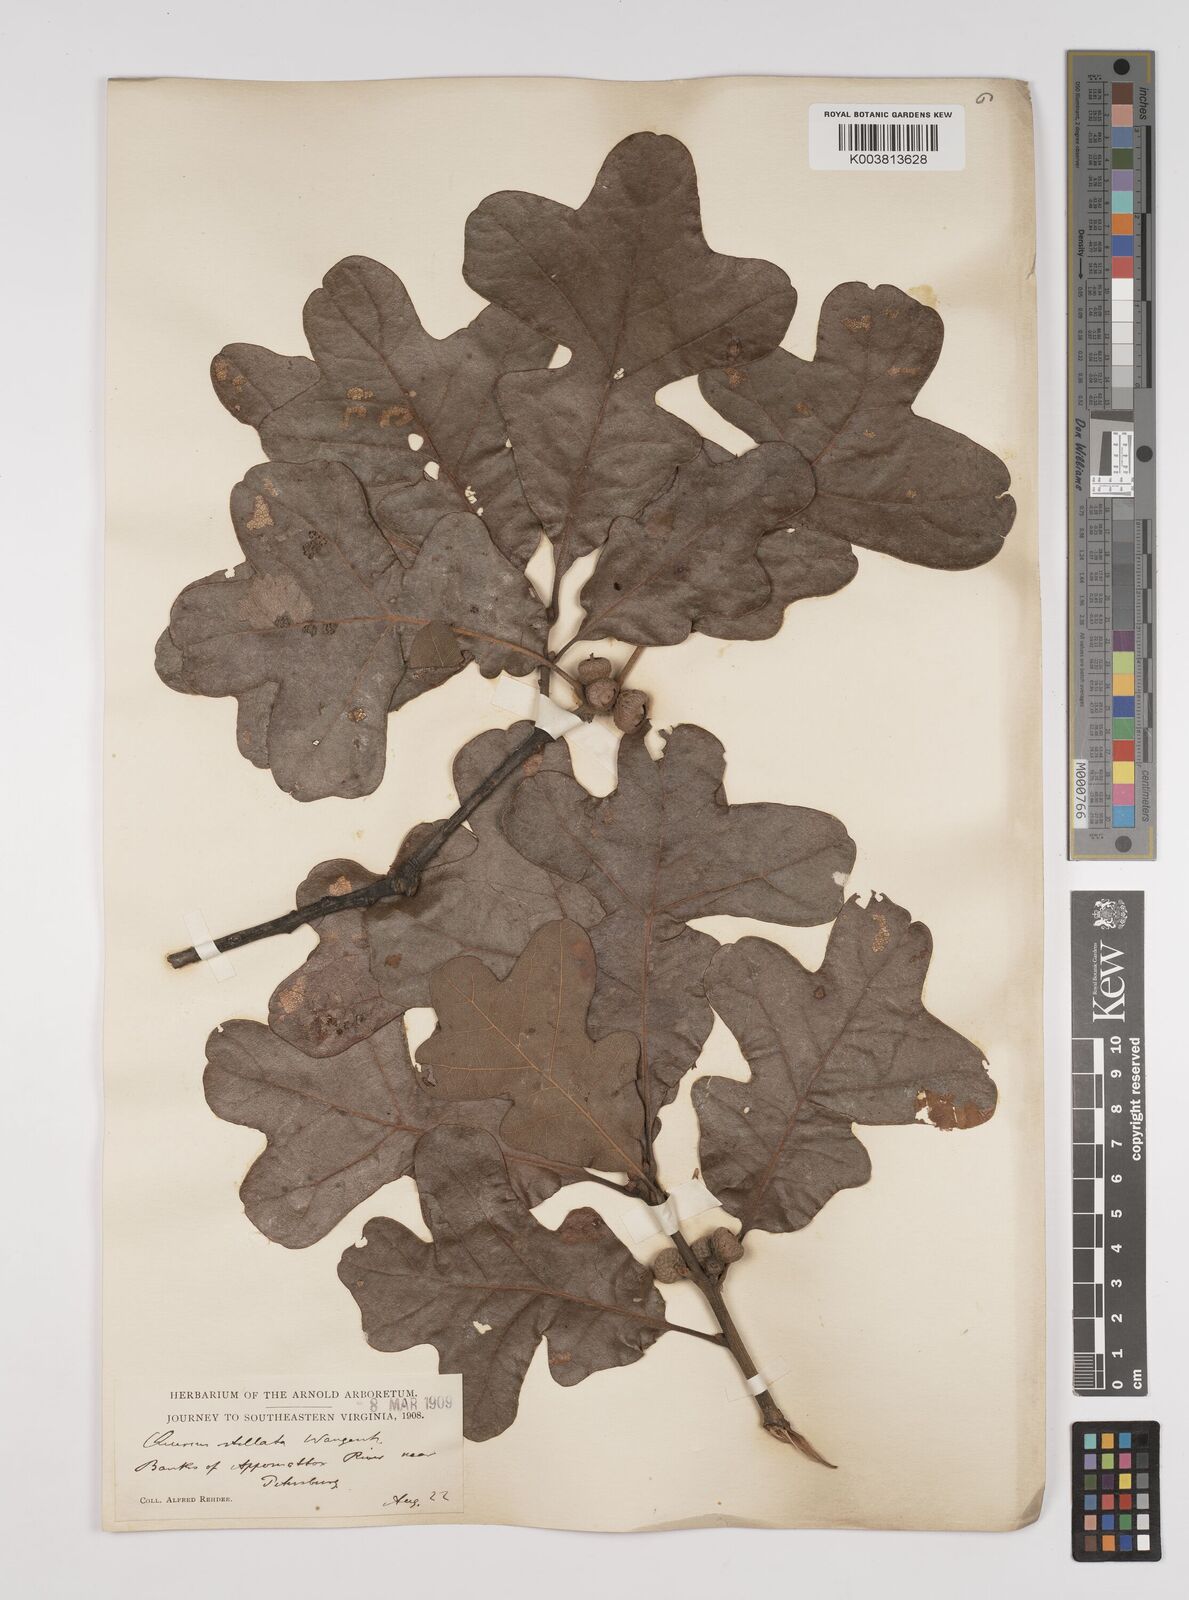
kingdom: Plantae
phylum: Tracheophyta
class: Magnoliopsida
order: Fagales
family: Fagaceae
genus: Quercus
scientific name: Quercus stellata
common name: Post oak
